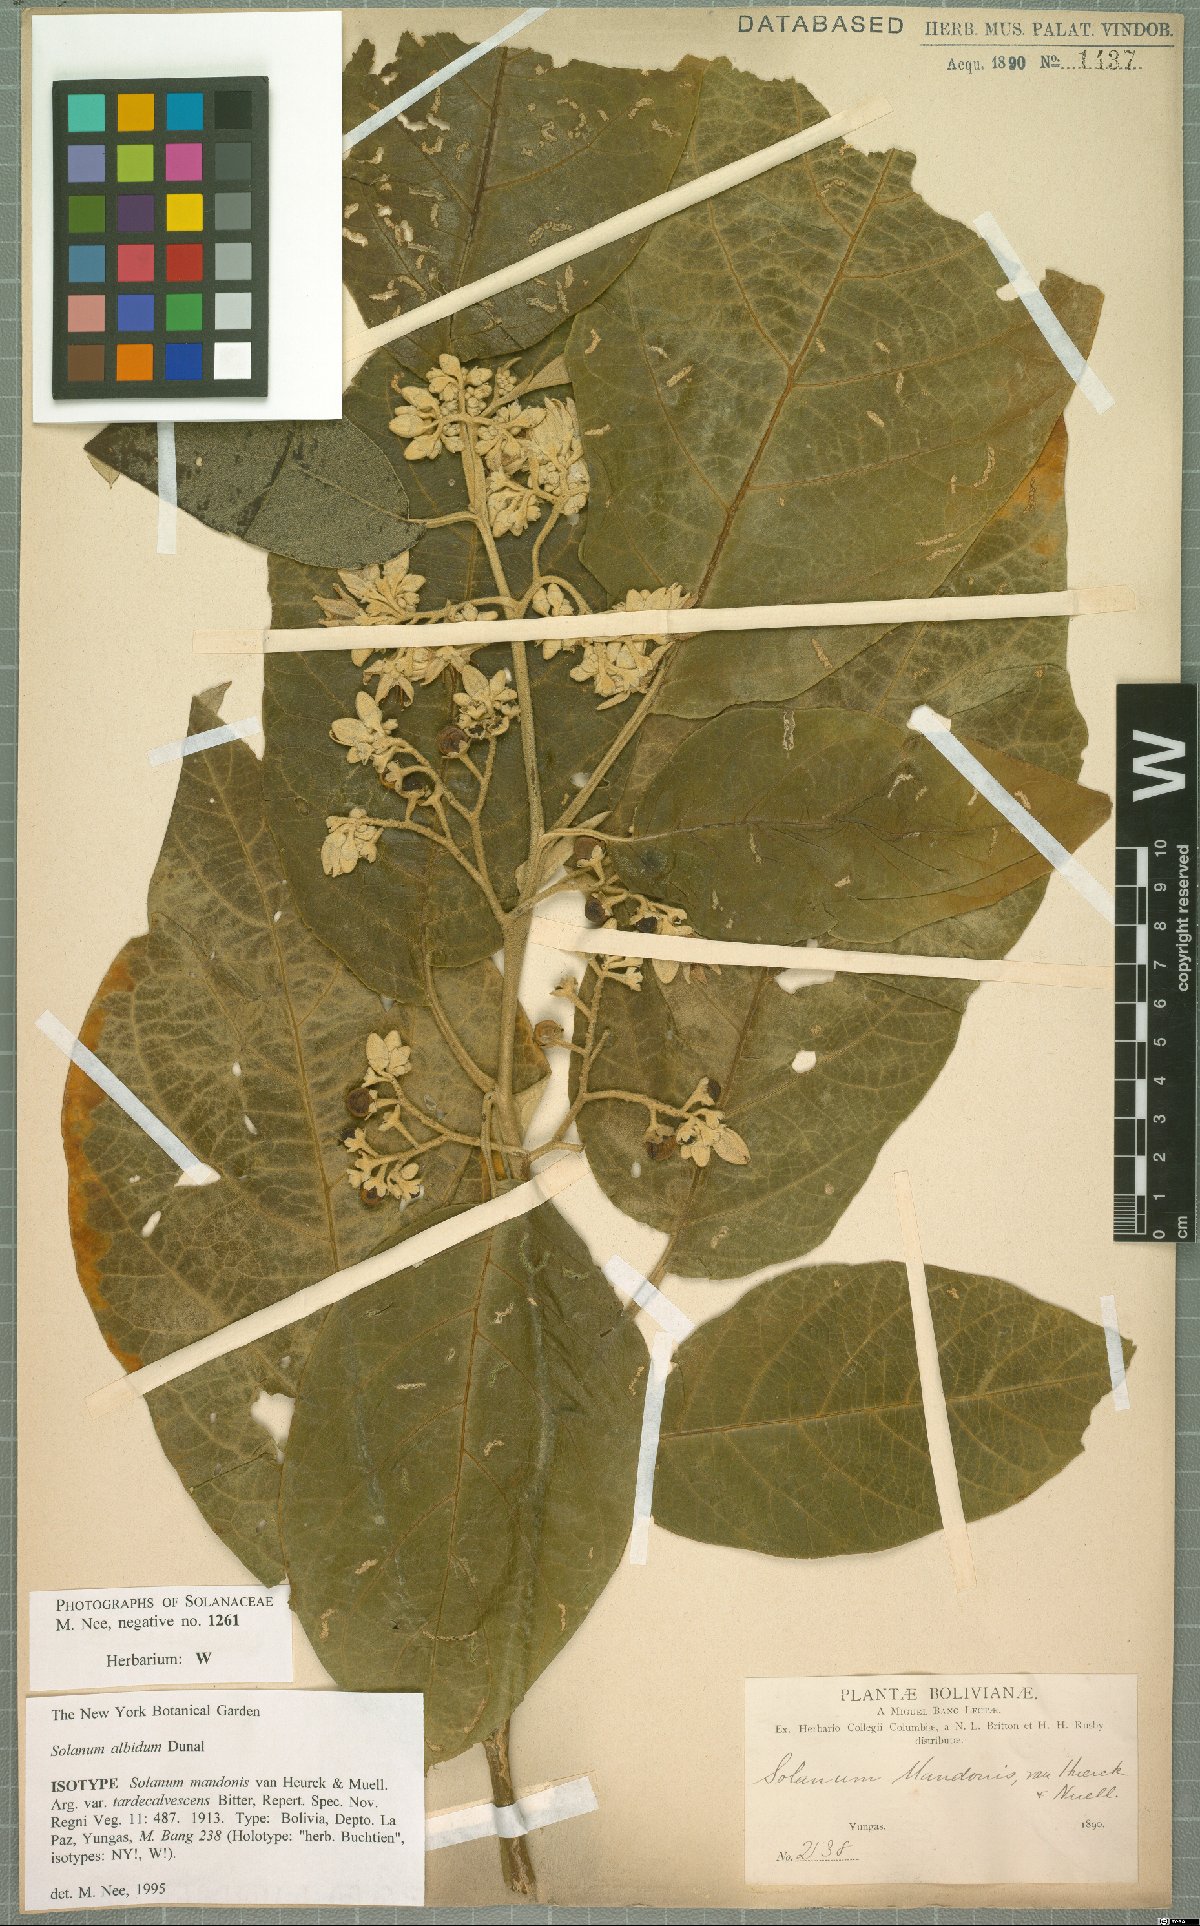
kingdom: Plantae
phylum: Tracheophyta
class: Magnoliopsida
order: Solanales
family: Solanaceae
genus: Solanum
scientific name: Solanum anguivi
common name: Forest bitterberry
